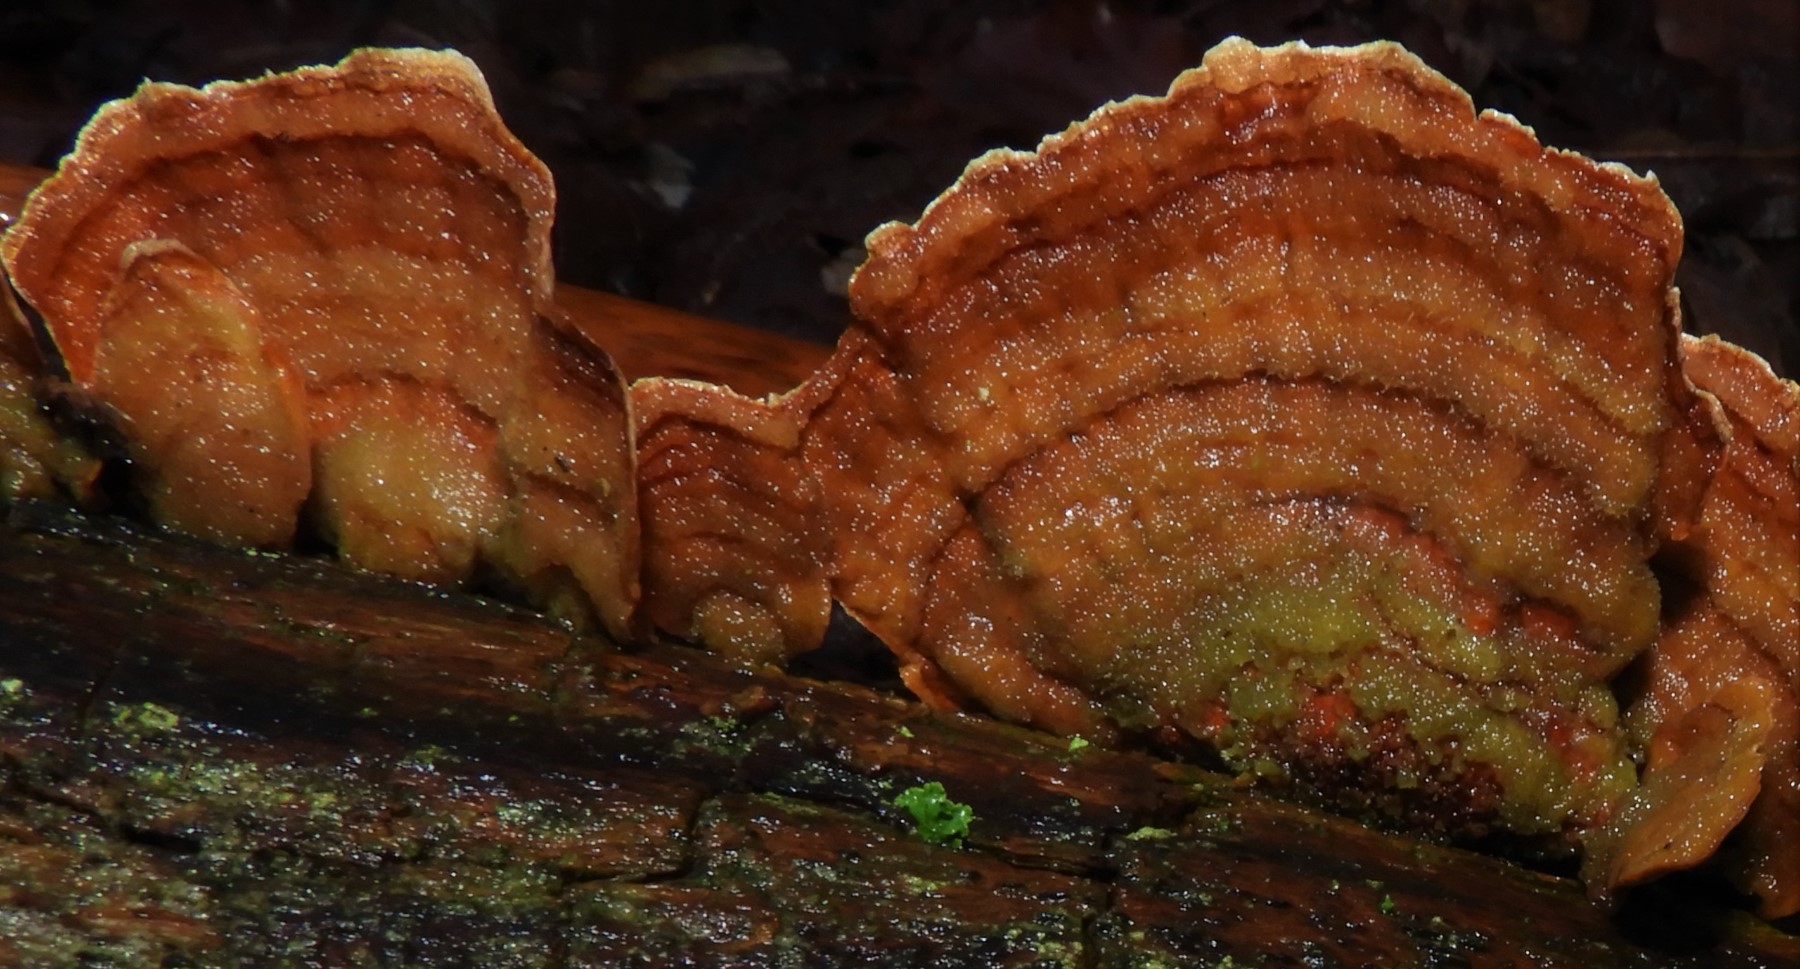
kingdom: Fungi
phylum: Basidiomycota
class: Agaricomycetes
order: Russulales
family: Stereaceae
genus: Stereum
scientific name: Stereum subtomentosum
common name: smuk lædersvamp
